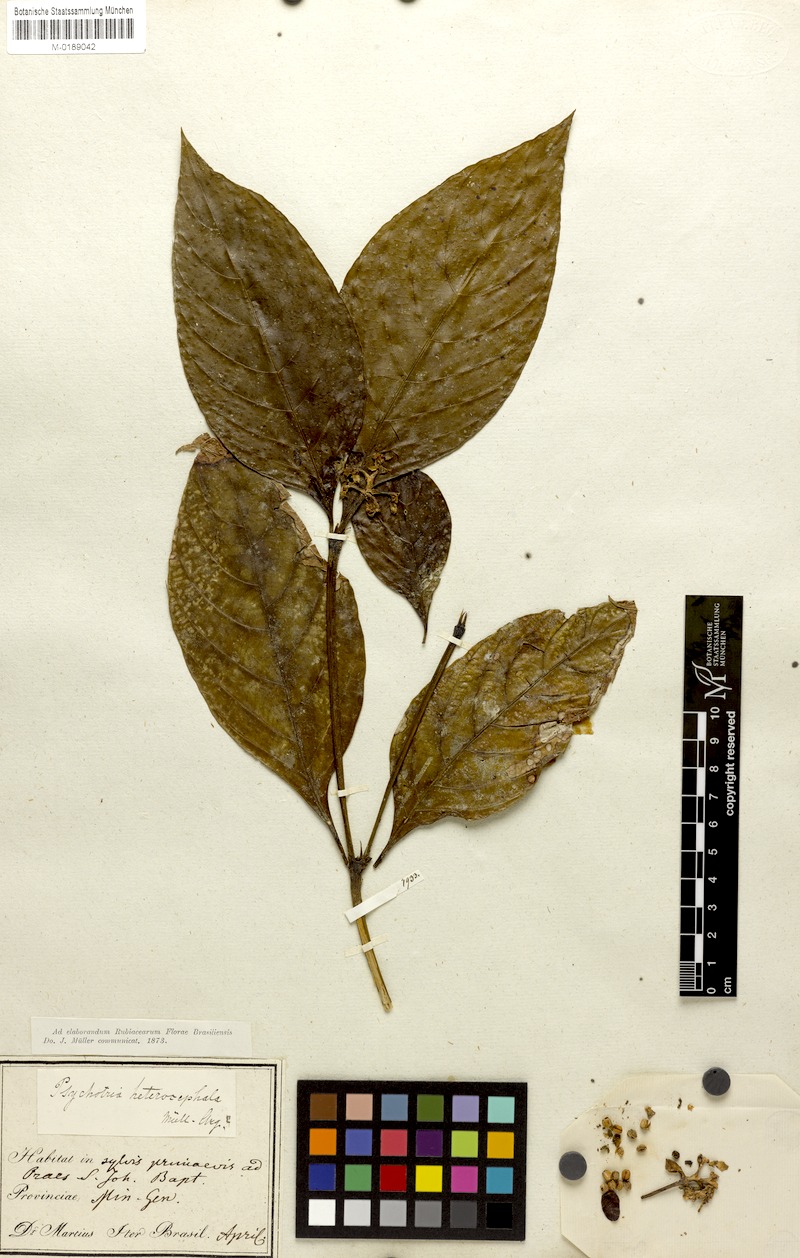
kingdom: Plantae
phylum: Tracheophyta
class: Magnoliopsida
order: Gentianales
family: Rubiaceae
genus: Palicourea
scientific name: Palicourea hoffmannseggiana
